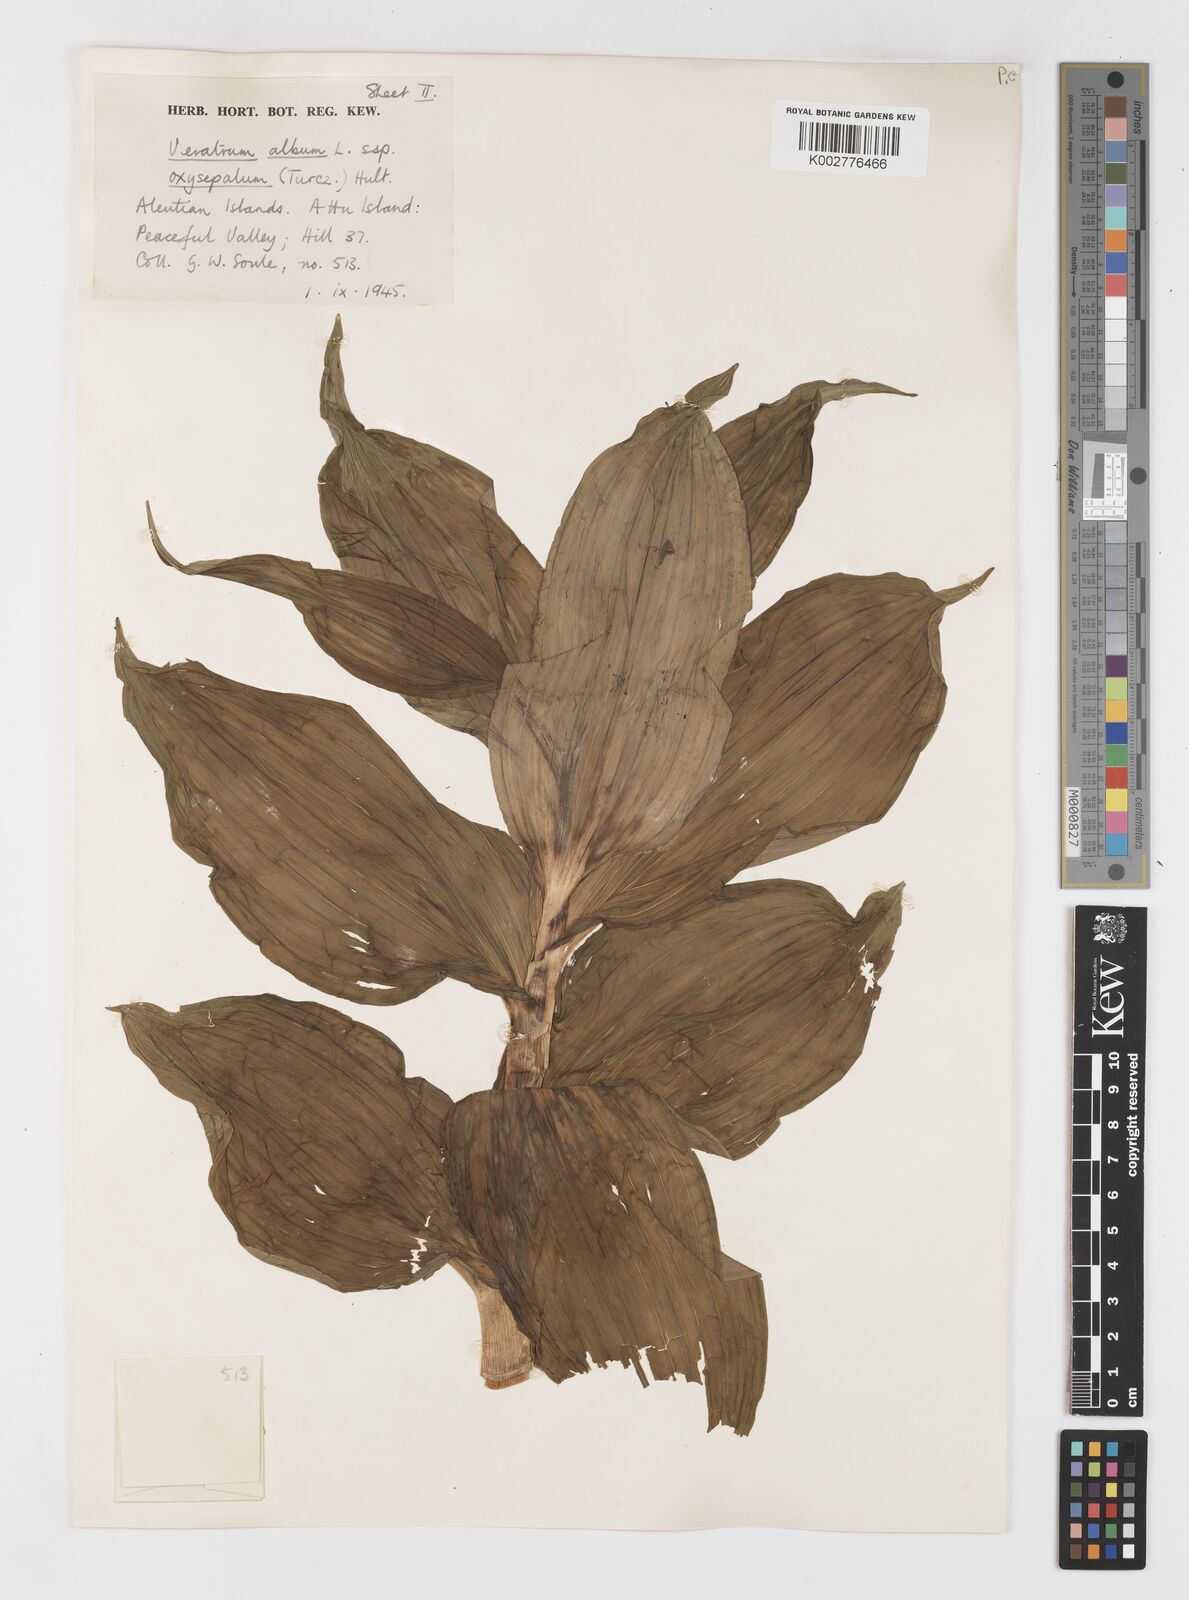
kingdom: Plantae
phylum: Tracheophyta
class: Liliopsida
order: Liliales
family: Melanthiaceae
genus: Veratrum
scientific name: Veratrum oxysepalum
